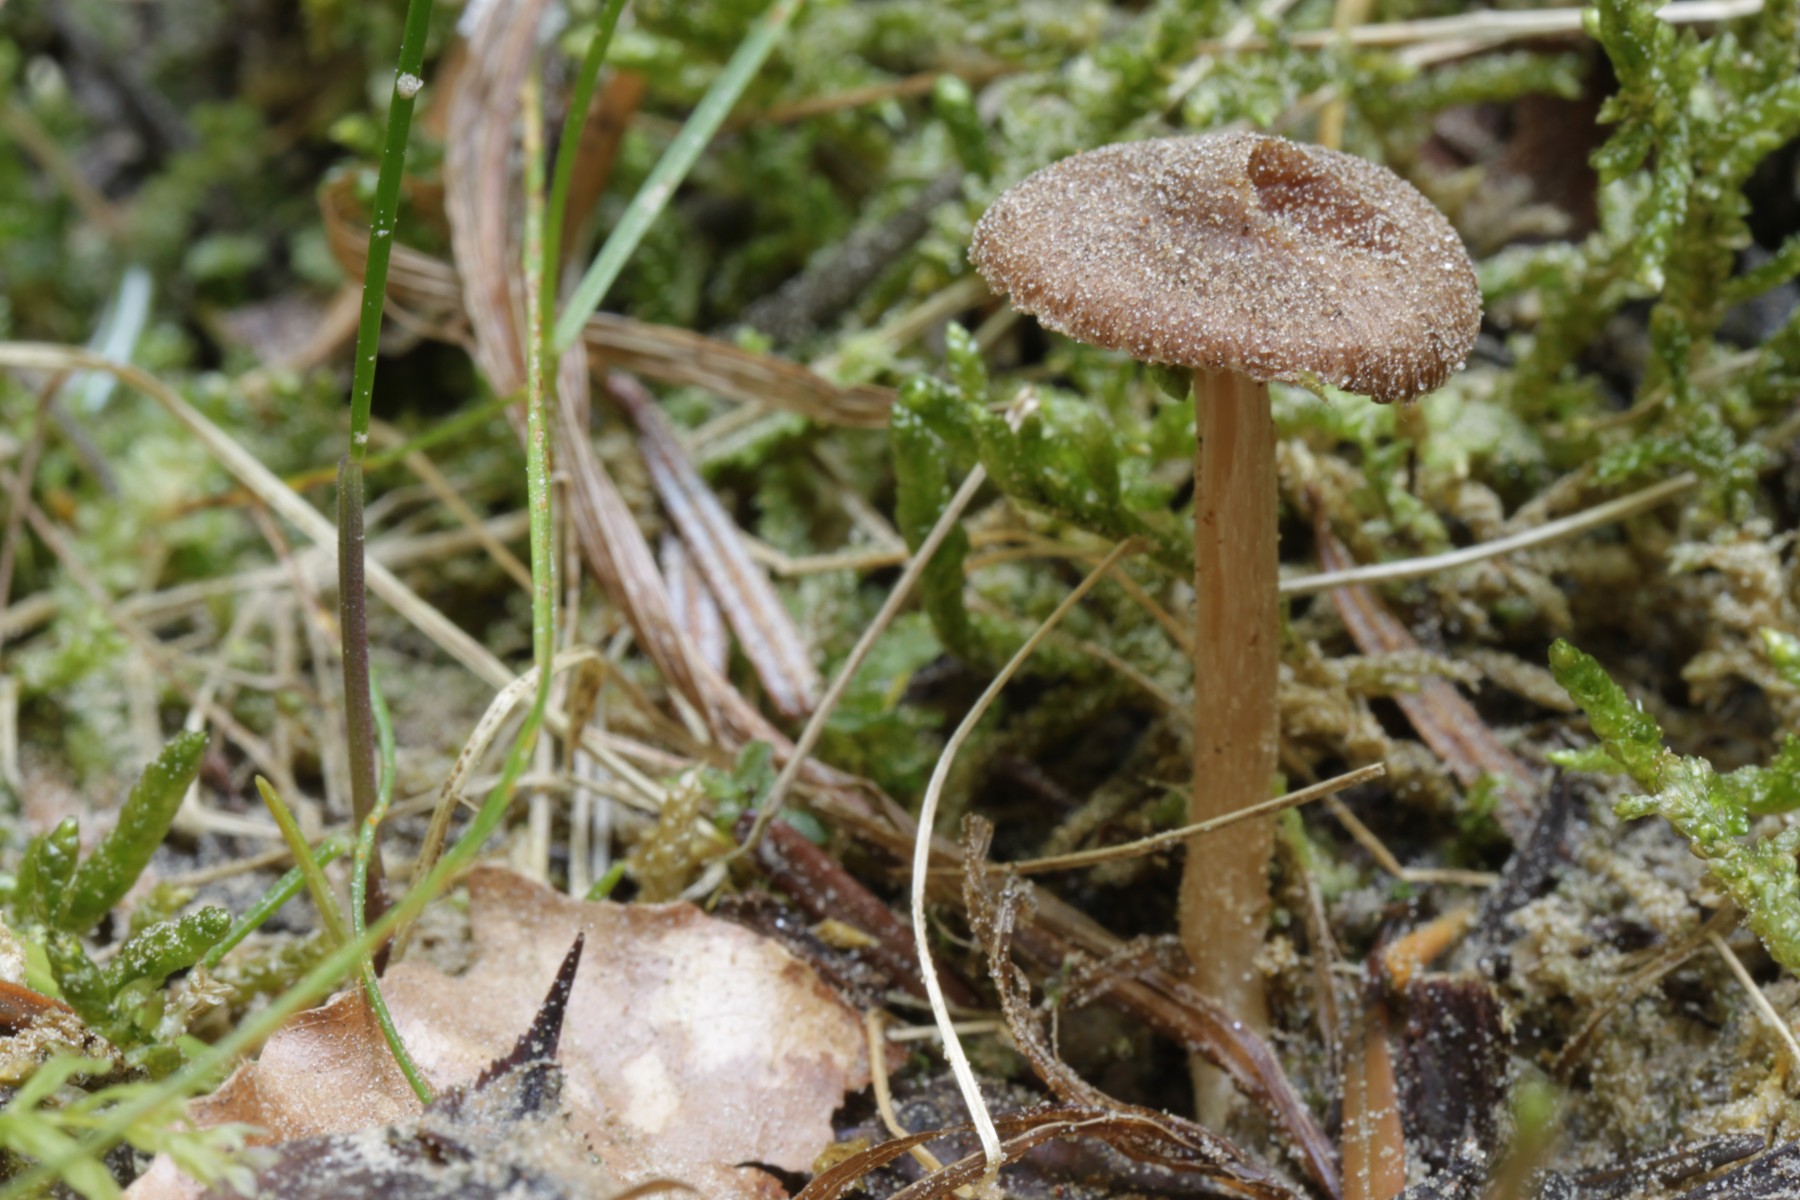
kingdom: Fungi
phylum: Basidiomycota
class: Agaricomycetes
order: Agaricales
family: Inocybaceae
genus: Inocybe
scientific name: Inocybe
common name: trævlhat
